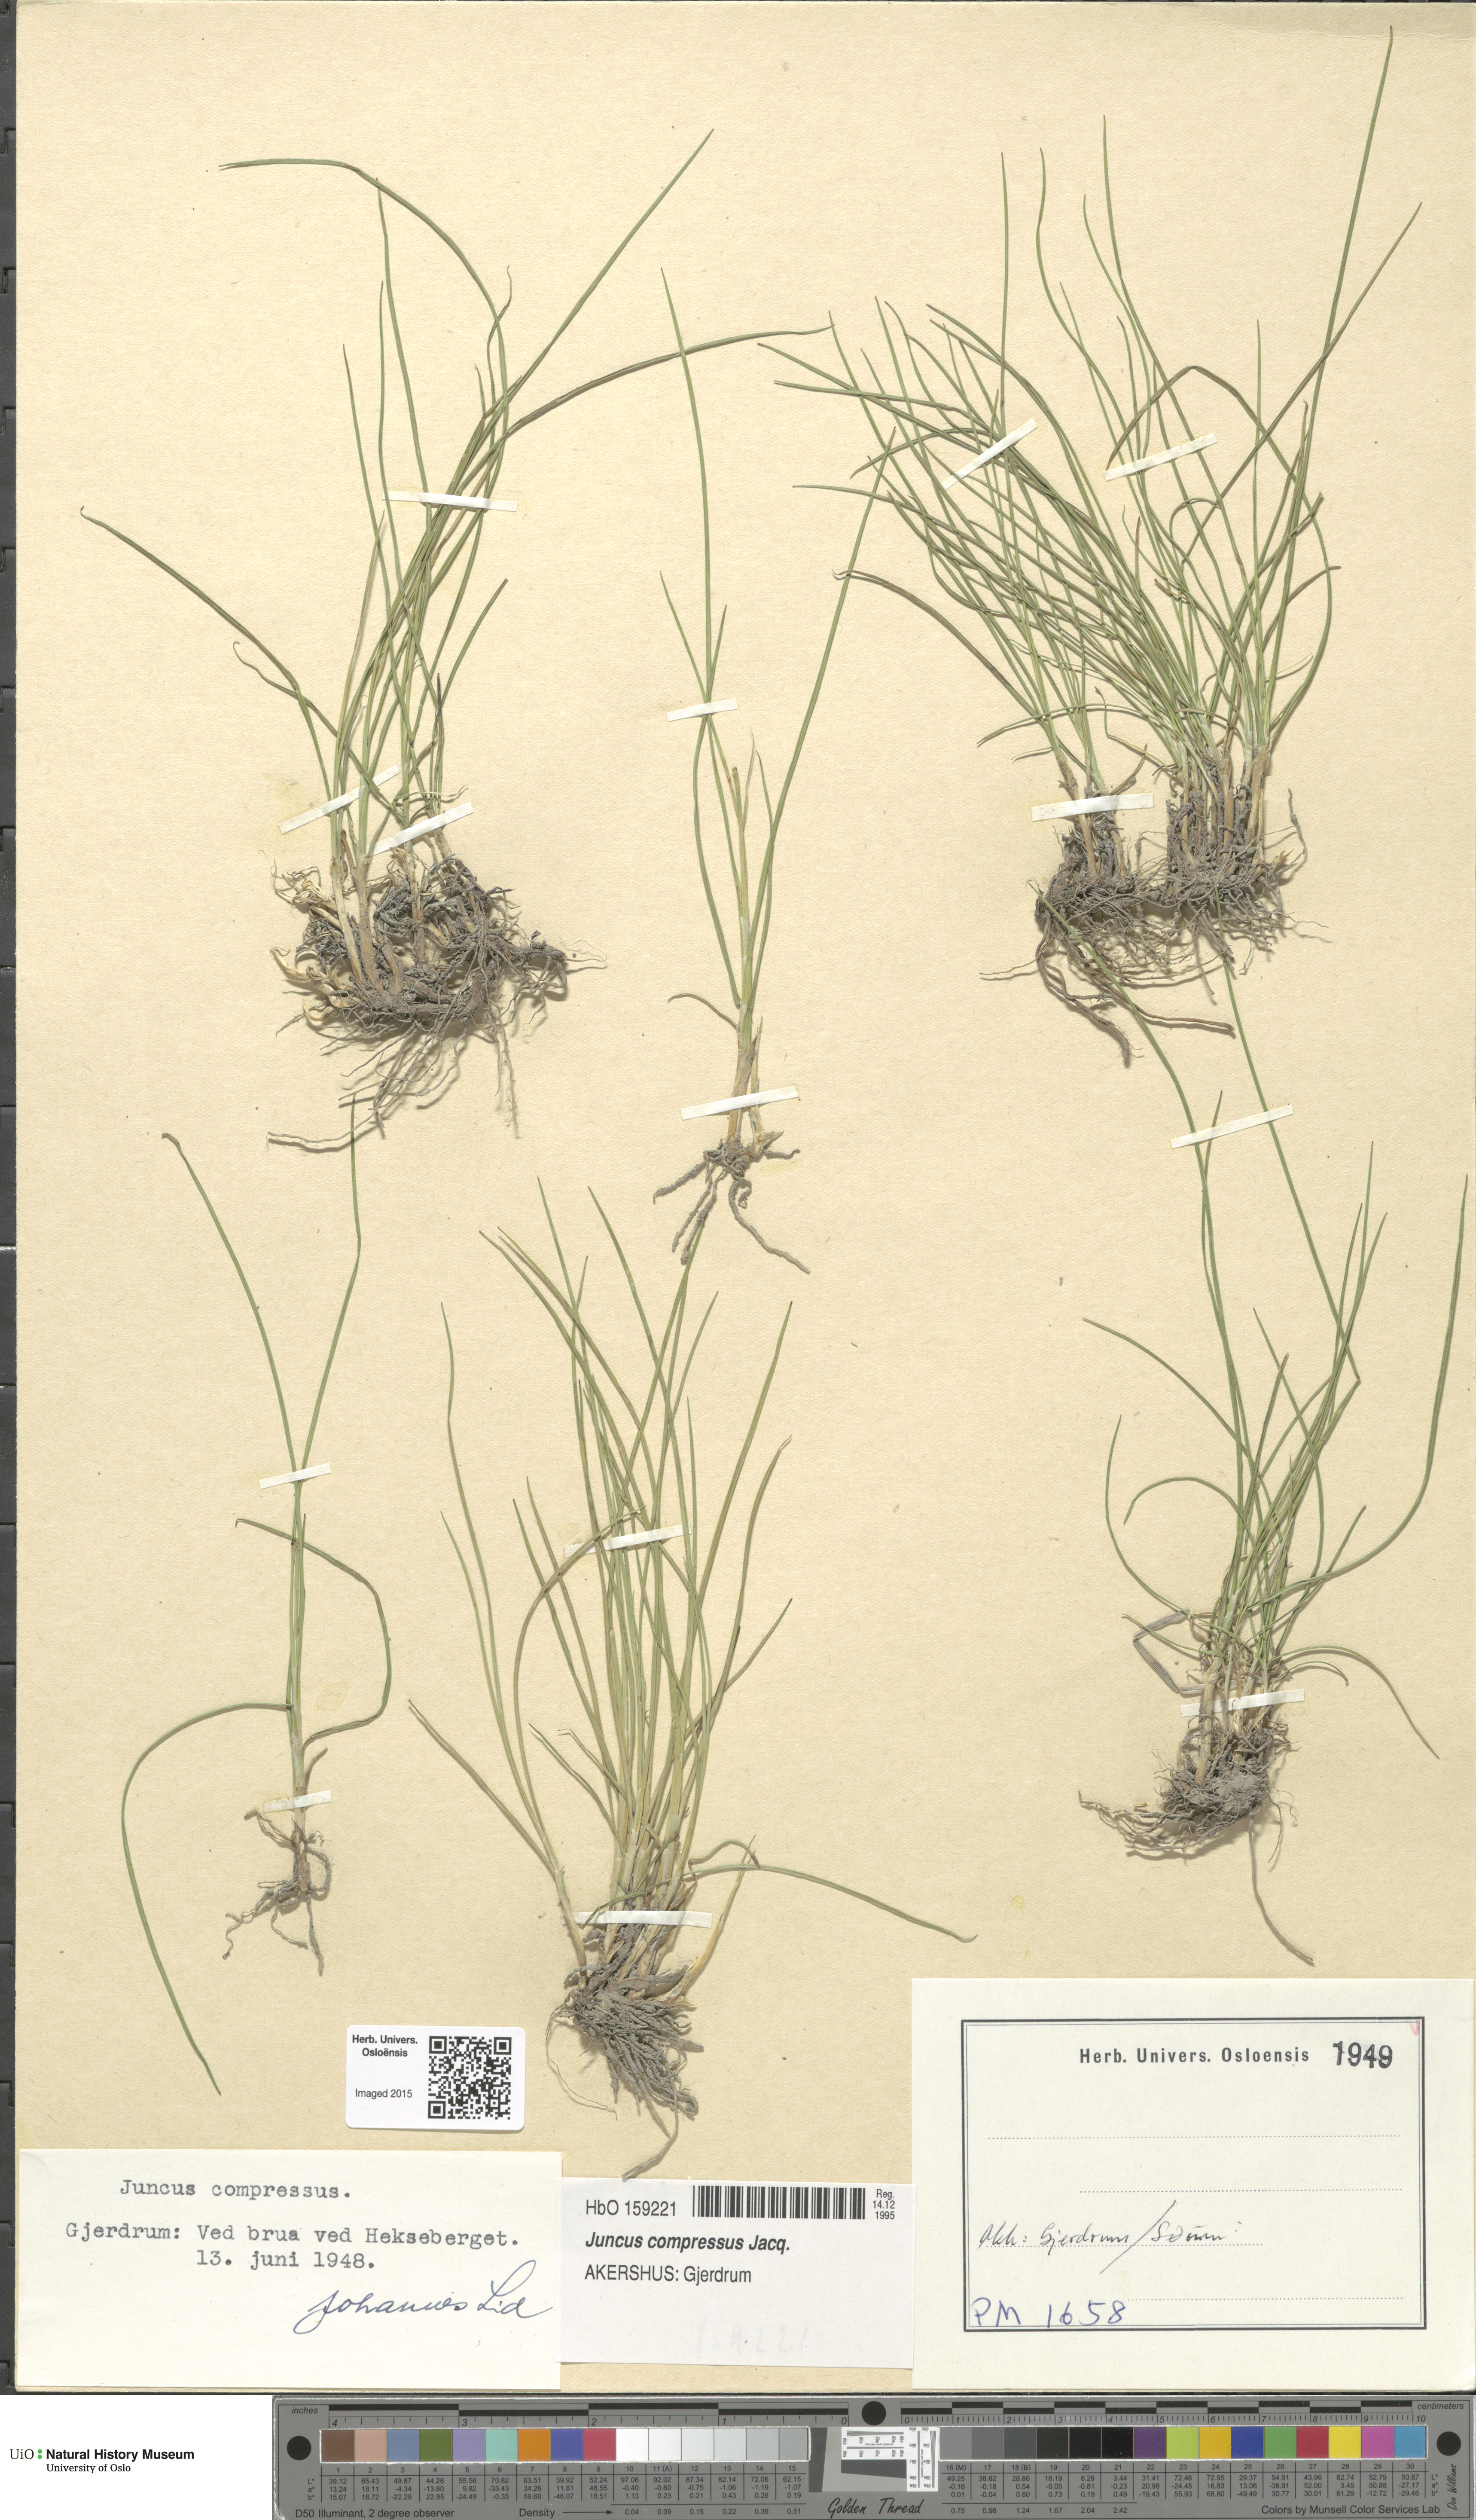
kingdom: Plantae
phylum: Tracheophyta
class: Liliopsida
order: Poales
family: Juncaceae
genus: Juncus
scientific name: Juncus compressus
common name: Round-fruited rush
